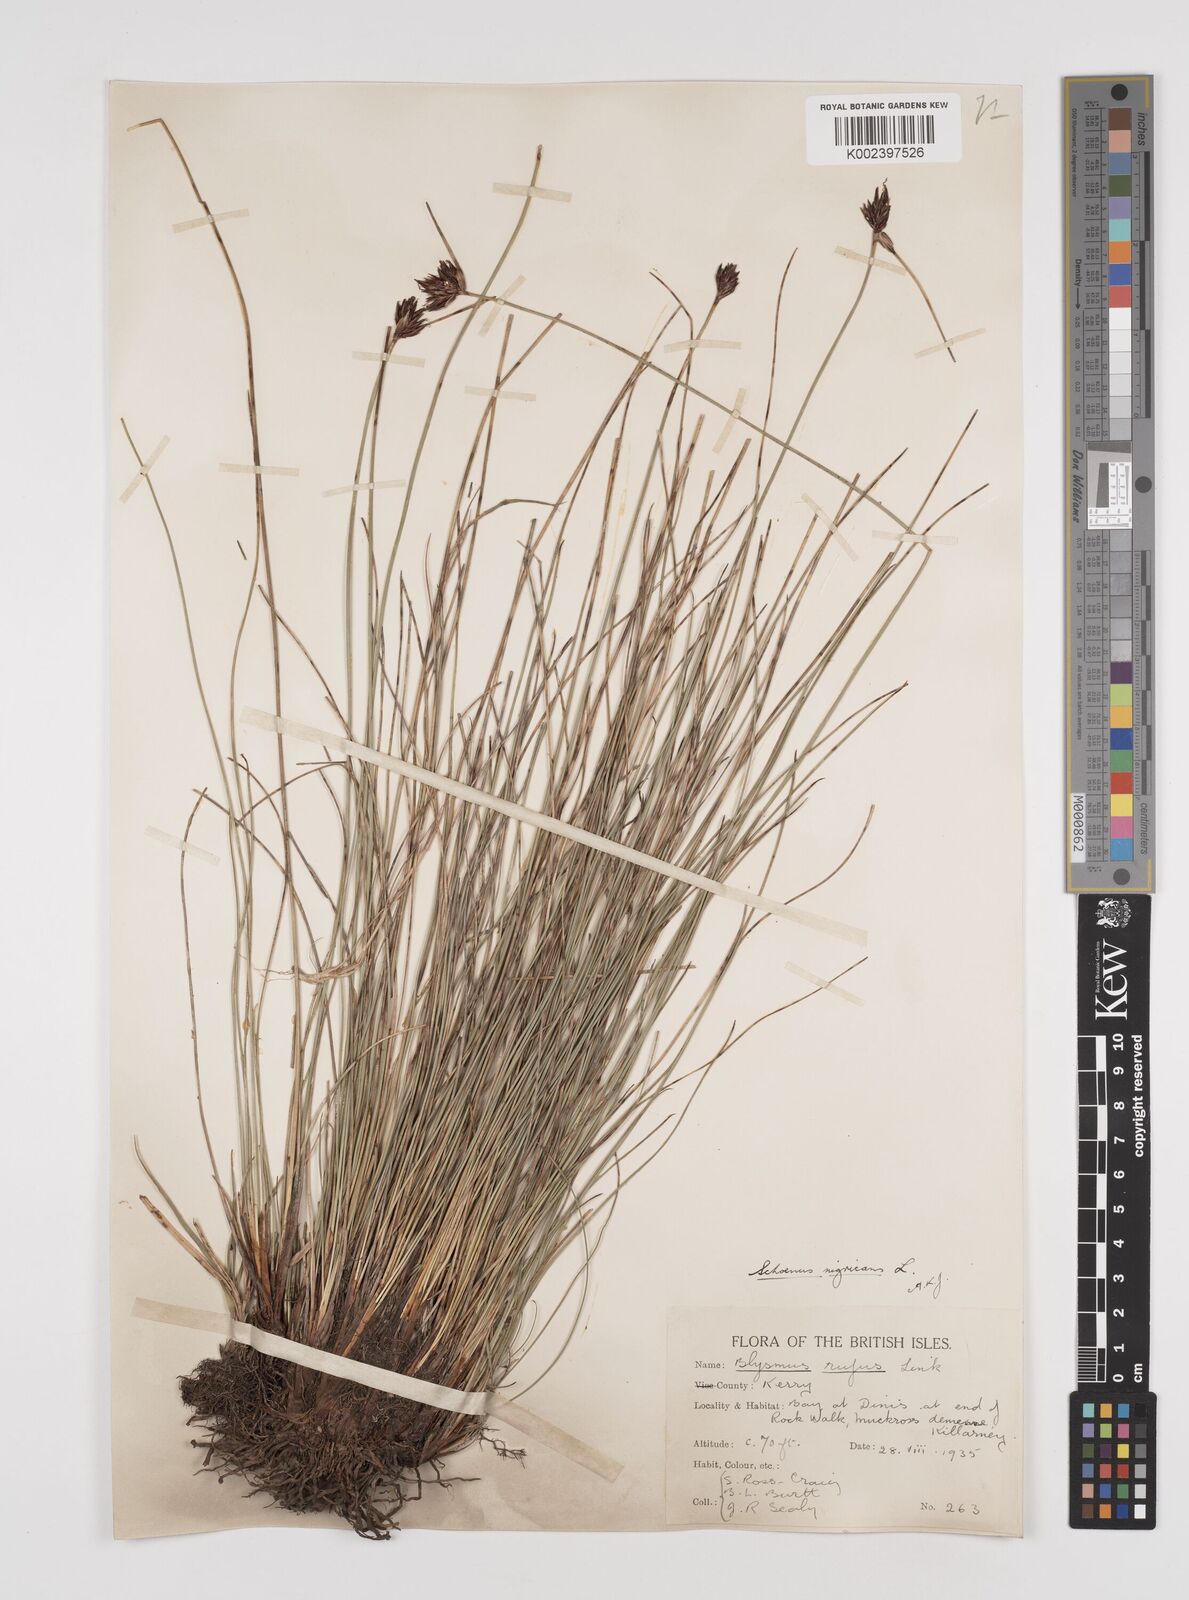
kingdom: Plantae
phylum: Tracheophyta
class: Liliopsida
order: Poales
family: Cyperaceae
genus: Schoenus
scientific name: Schoenus nigricans
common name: Black bog-rush
